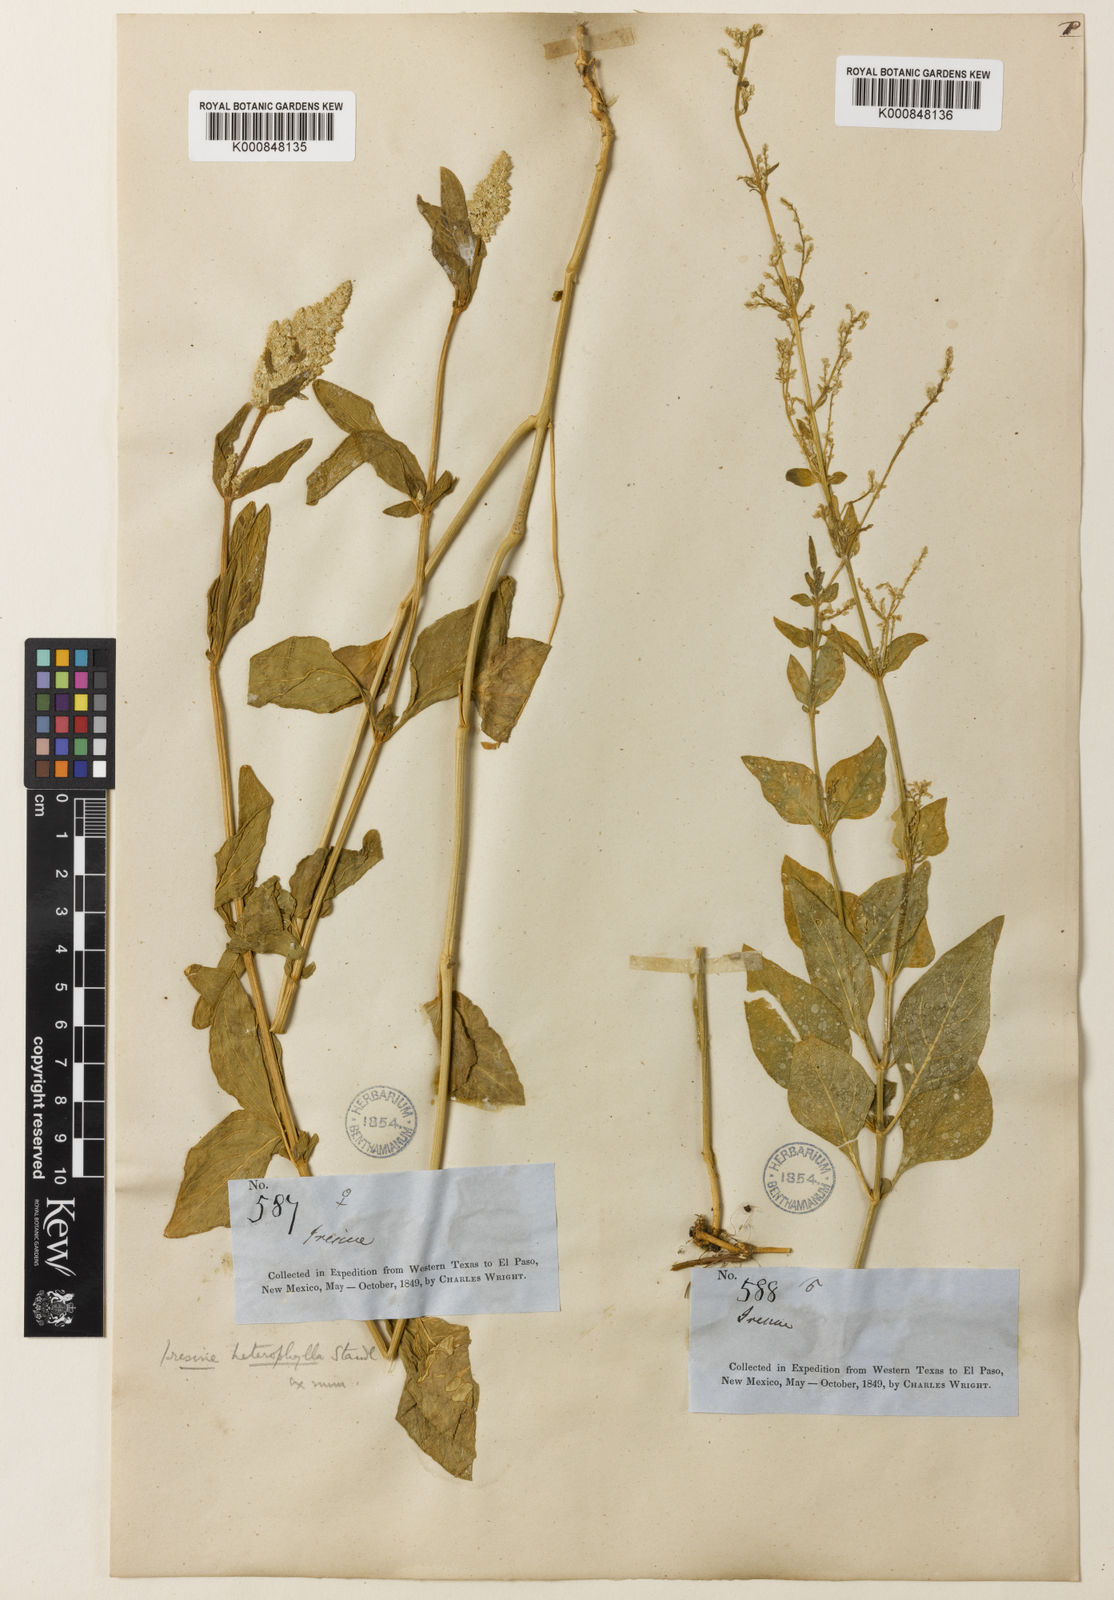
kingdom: Plantae
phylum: Tracheophyta
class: Magnoliopsida
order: Caryophyllales
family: Amaranthaceae
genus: Iresine
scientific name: Iresine heterophylla
